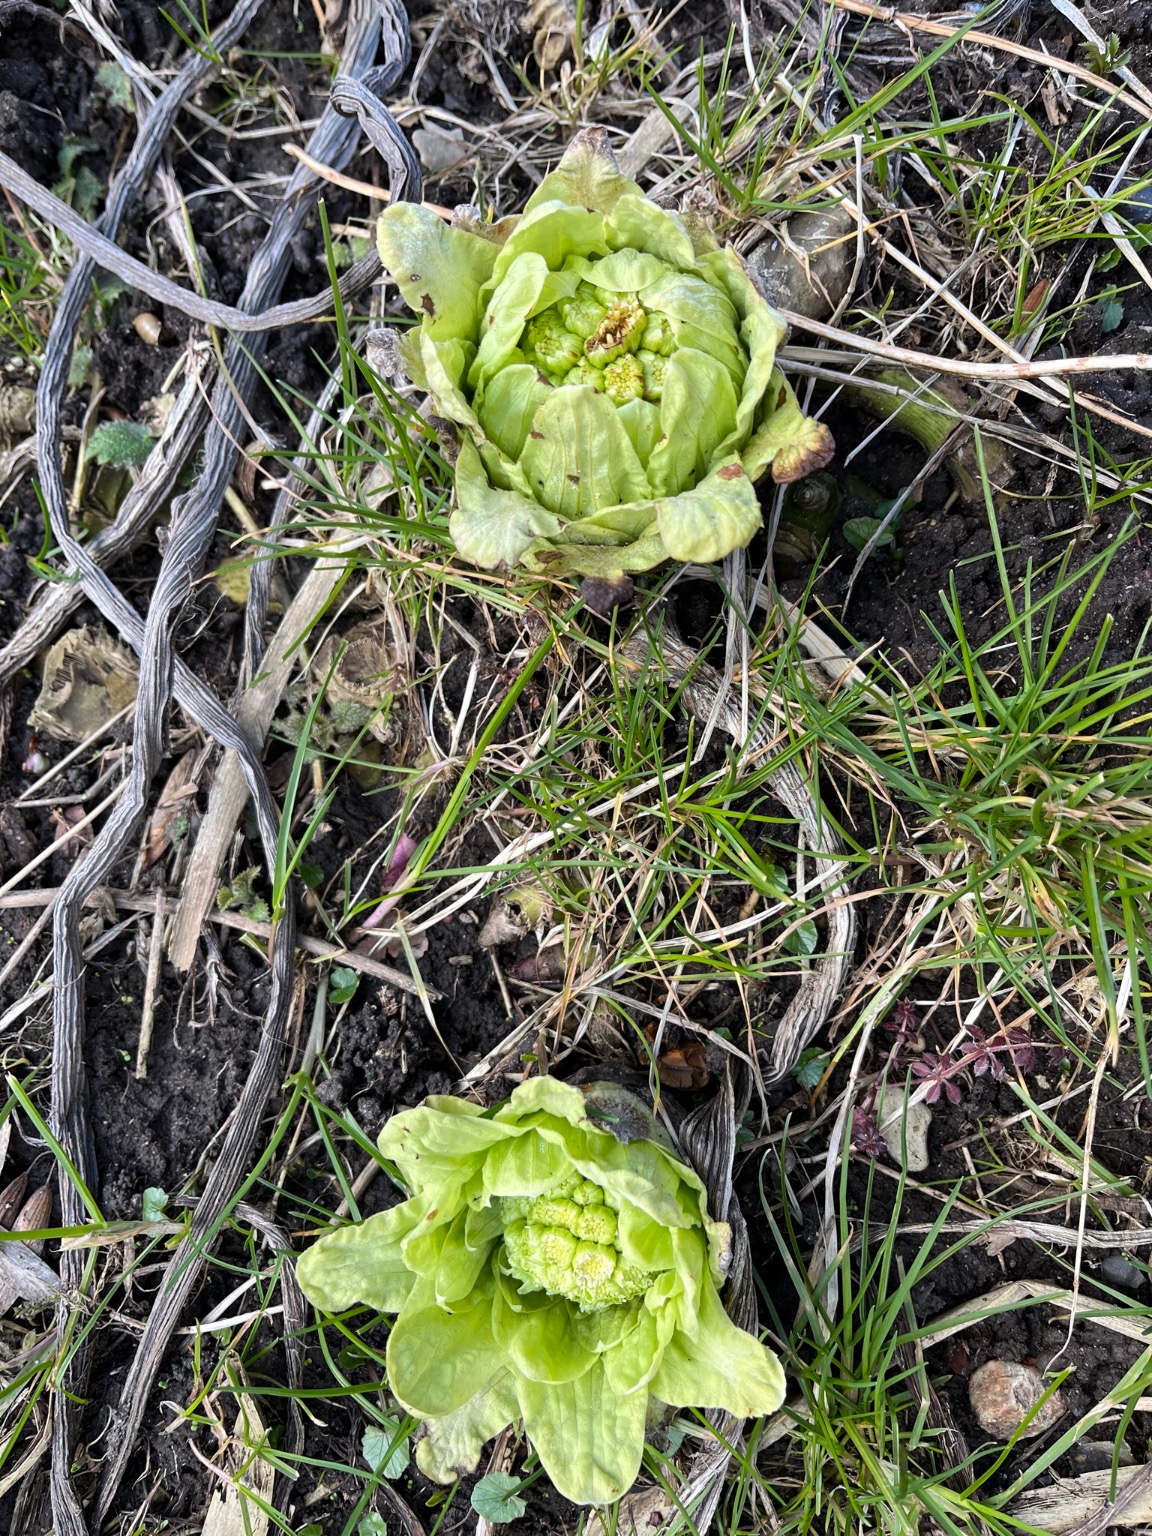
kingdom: Plantae
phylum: Tracheophyta
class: Magnoliopsida
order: Asterales
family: Asteraceae
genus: Petasites
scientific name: Petasites japonicus
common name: Japansk hestehov
